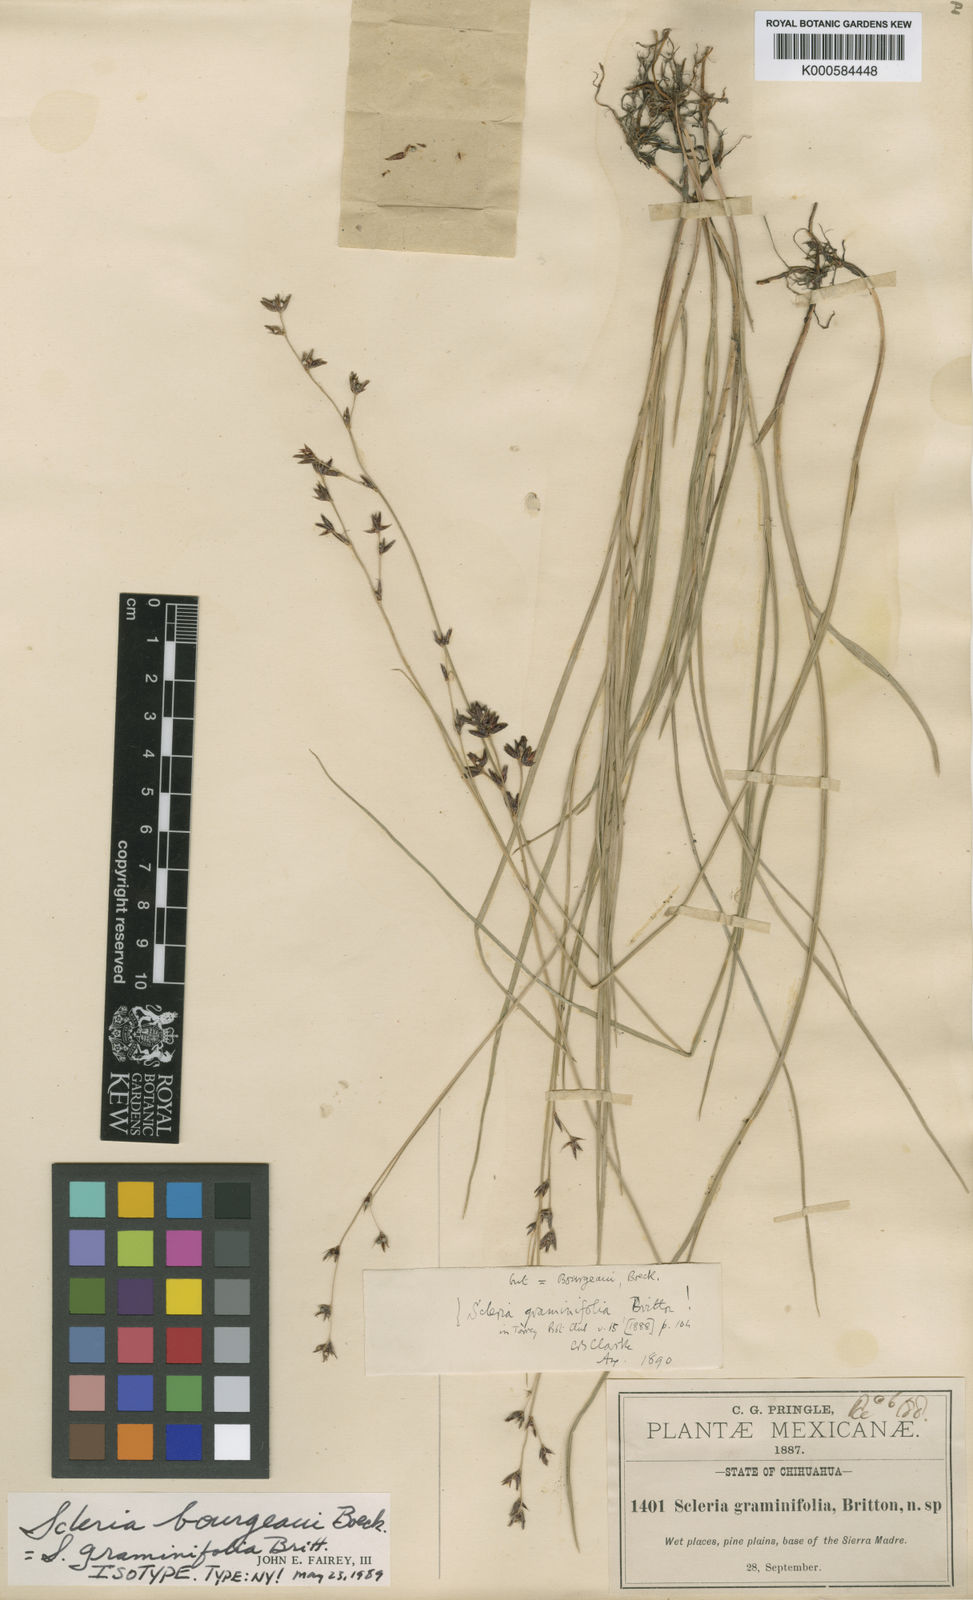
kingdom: Plantae
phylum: Tracheophyta
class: Liliopsida
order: Poales
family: Cyperaceae
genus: Scleria
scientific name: Scleria bourgeaui
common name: Bourgeau's nutrush
